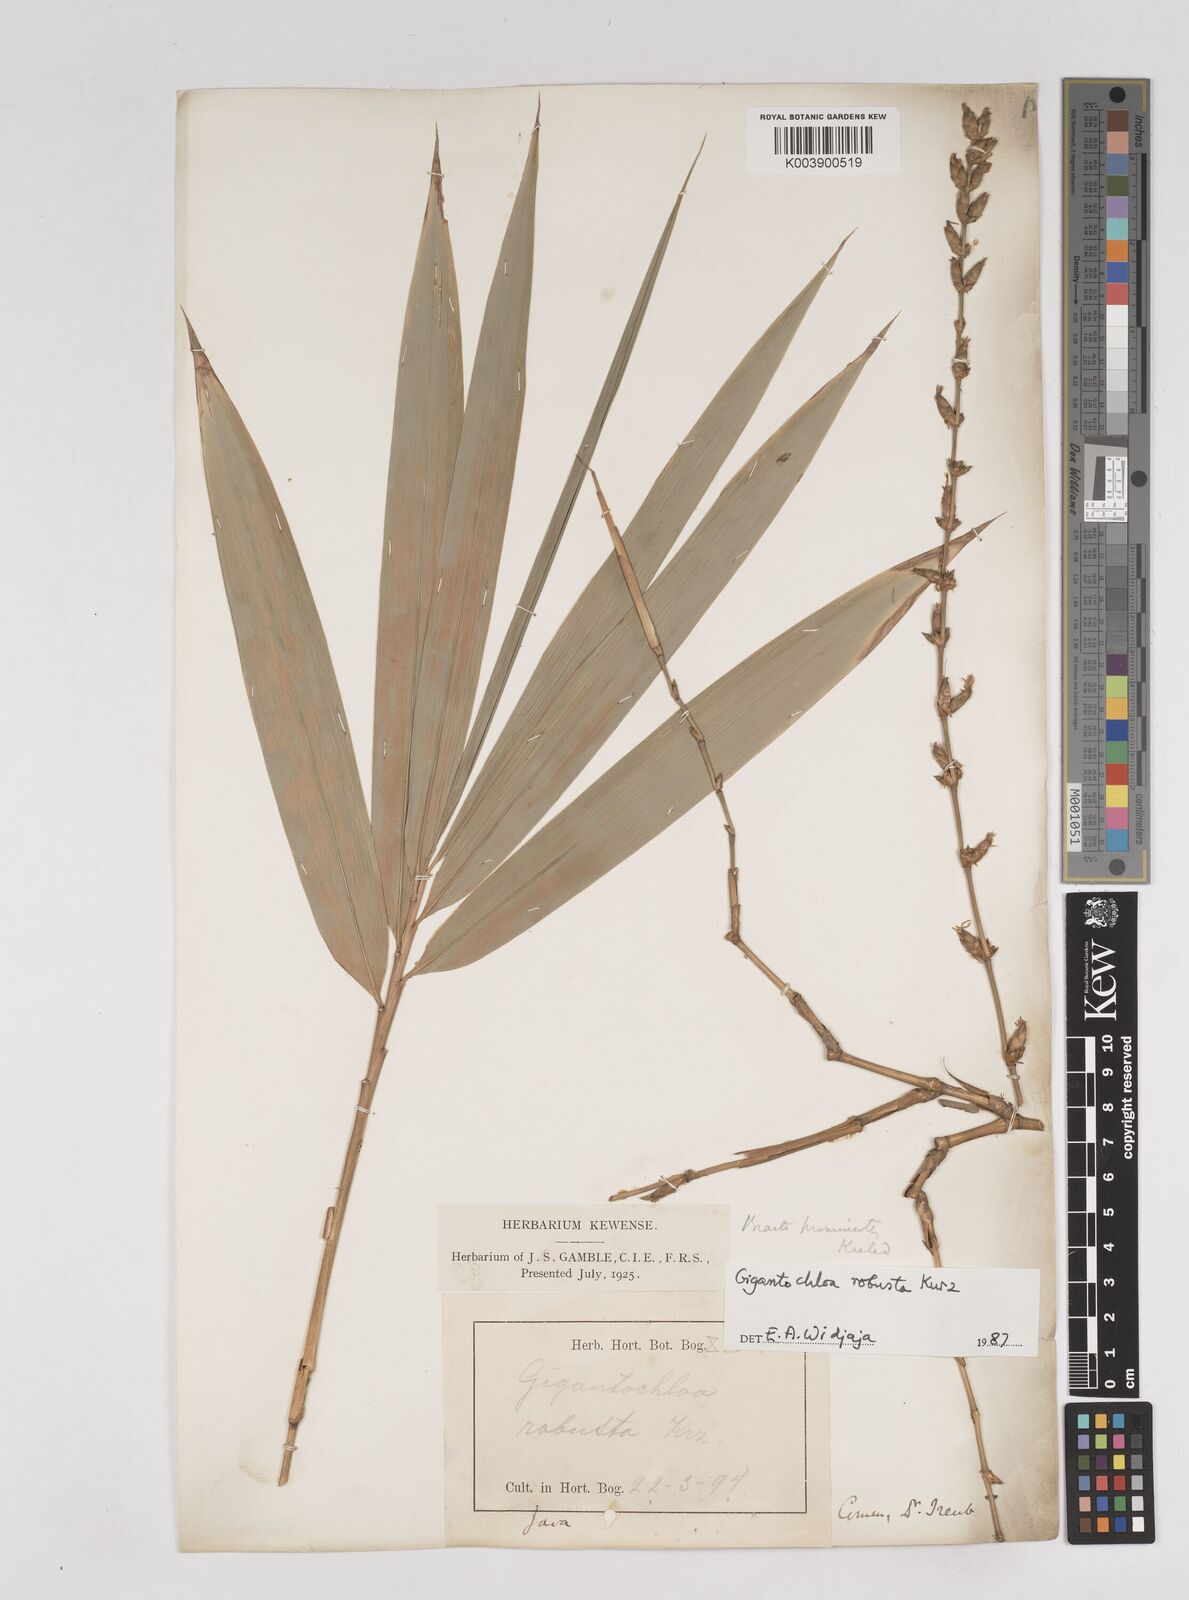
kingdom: Plantae
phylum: Tracheophyta
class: Liliopsida
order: Poales
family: Poaceae
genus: Gigantochloa
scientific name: Gigantochloa robusta
